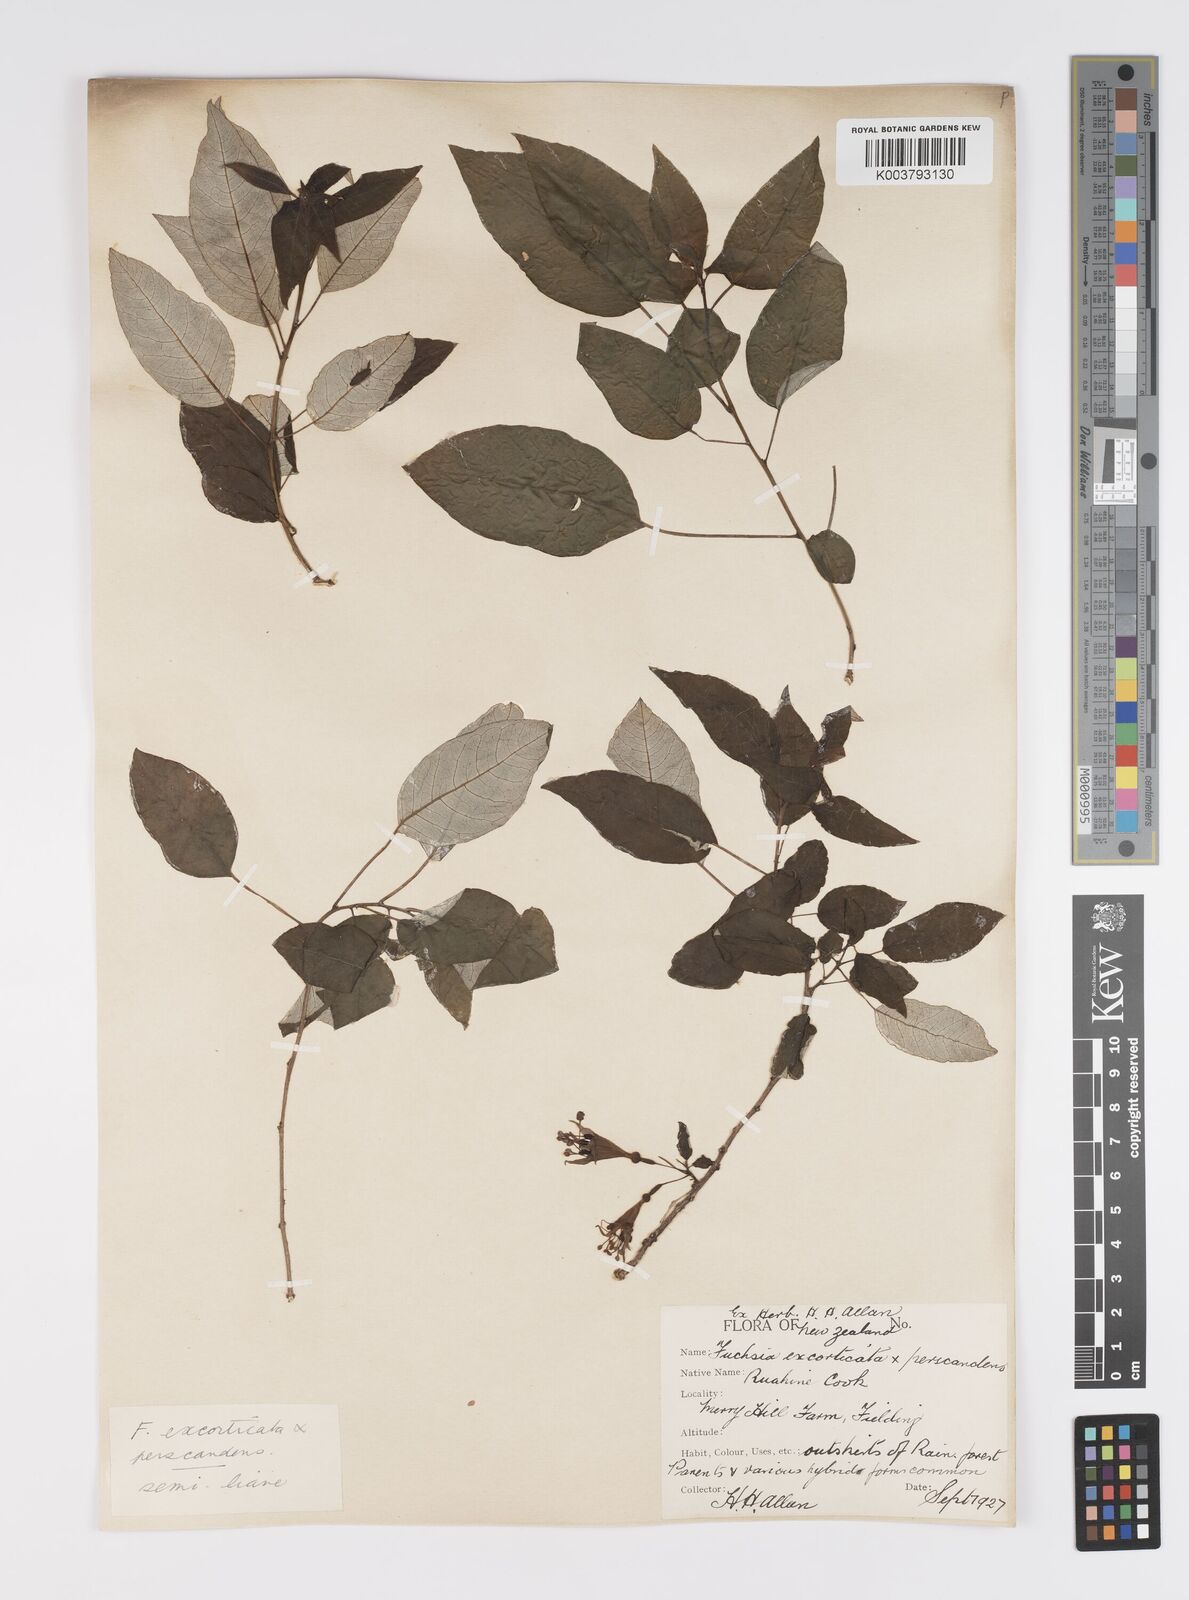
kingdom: Plantae
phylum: Tracheophyta
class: Magnoliopsida
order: Myrtales
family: Onagraceae
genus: Fuchsia
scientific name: Fuchsia excorticata
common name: Tree fuchsia
